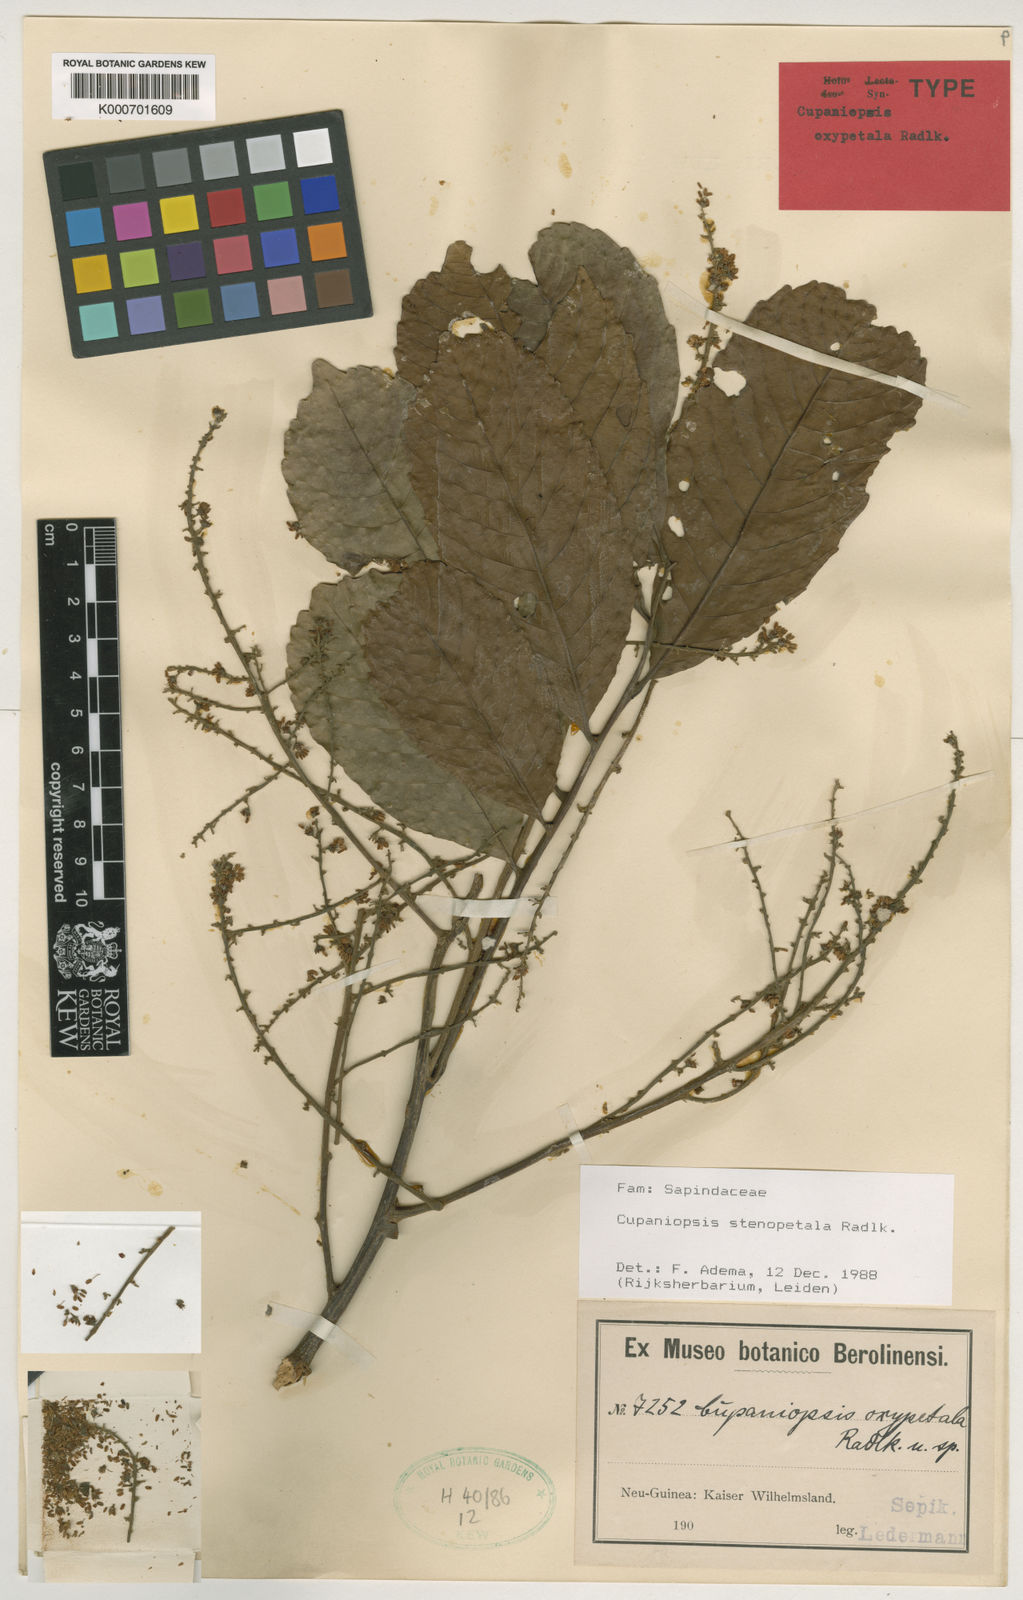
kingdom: Plantae
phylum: Tracheophyta
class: Magnoliopsida
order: Sapindales
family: Sapindaceae
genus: Cupaniopsis
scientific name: Cupaniopsis stenopetala
